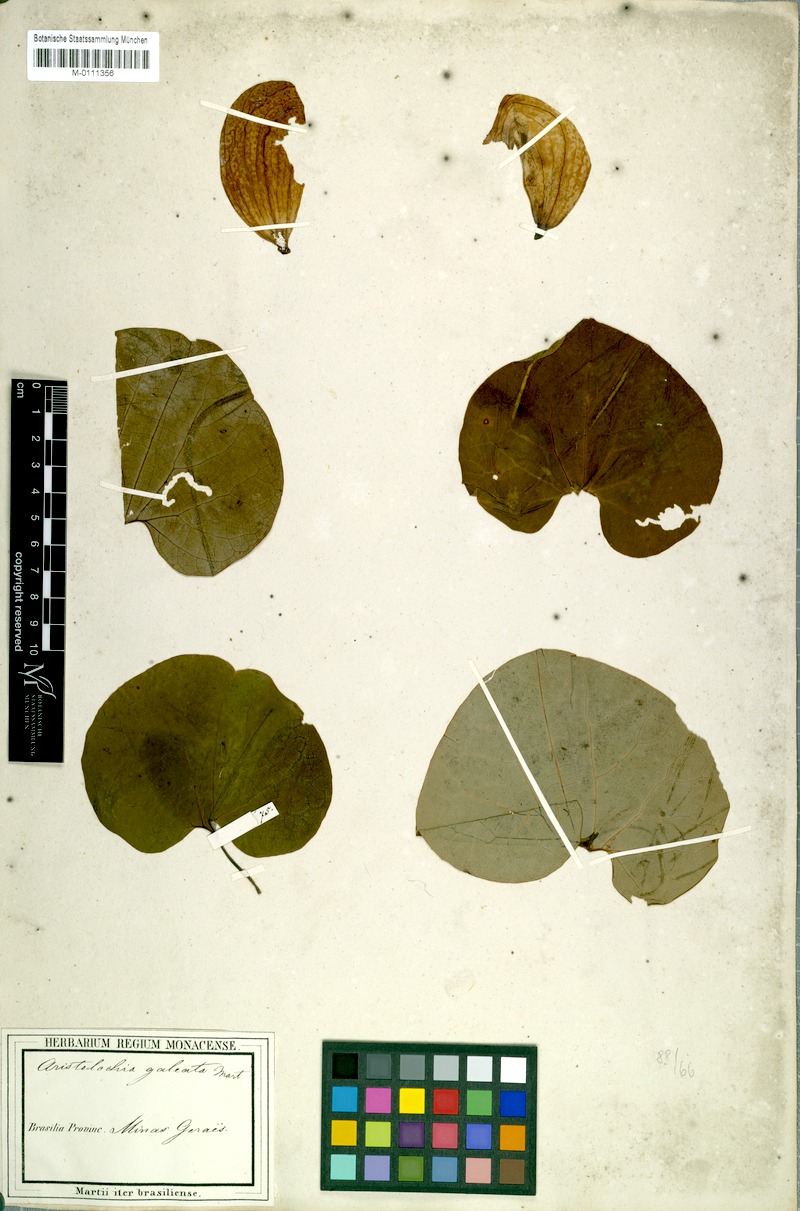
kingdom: Plantae
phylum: Tracheophyta
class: Magnoliopsida
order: Piperales
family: Aristolochiaceae
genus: Aristolochia
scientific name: Aristolochia labiata
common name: Mottled dutchman's pipe
